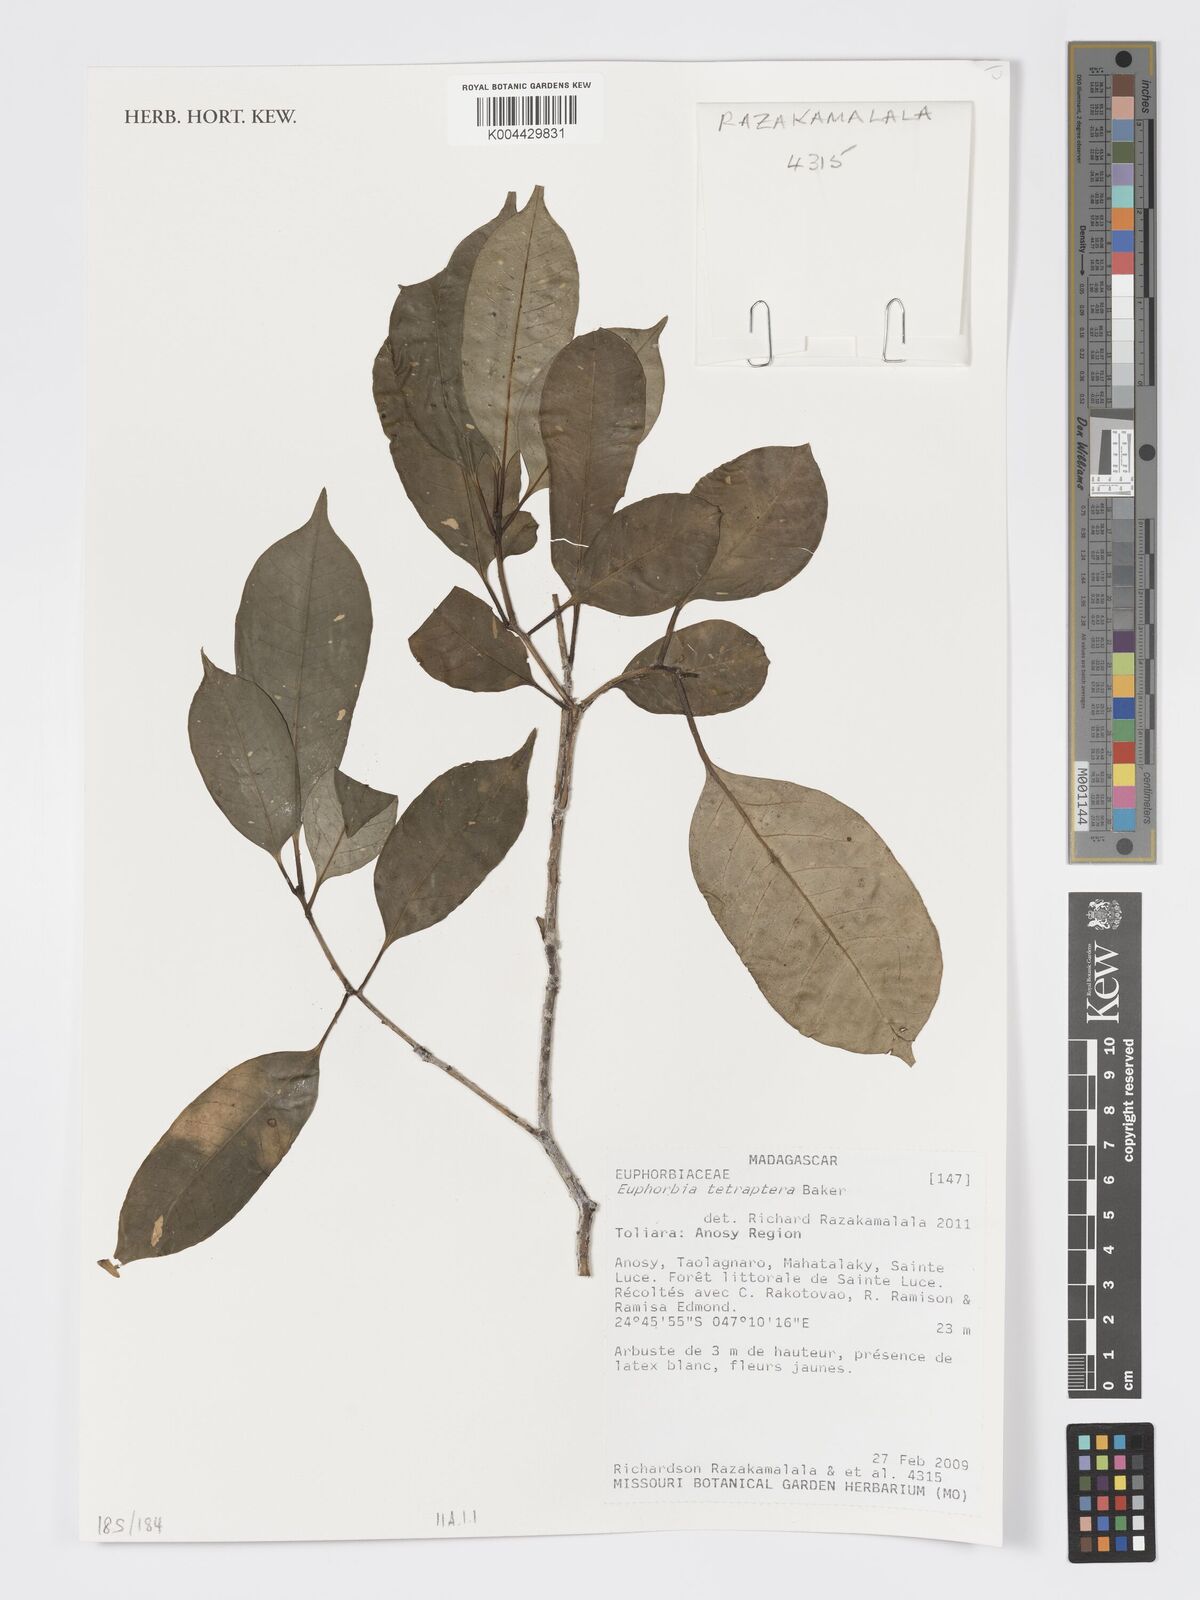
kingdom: Plantae
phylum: Tracheophyta
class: Magnoliopsida
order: Malpighiales
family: Euphorbiaceae
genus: Euphorbia
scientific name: Euphorbia tetraptera
